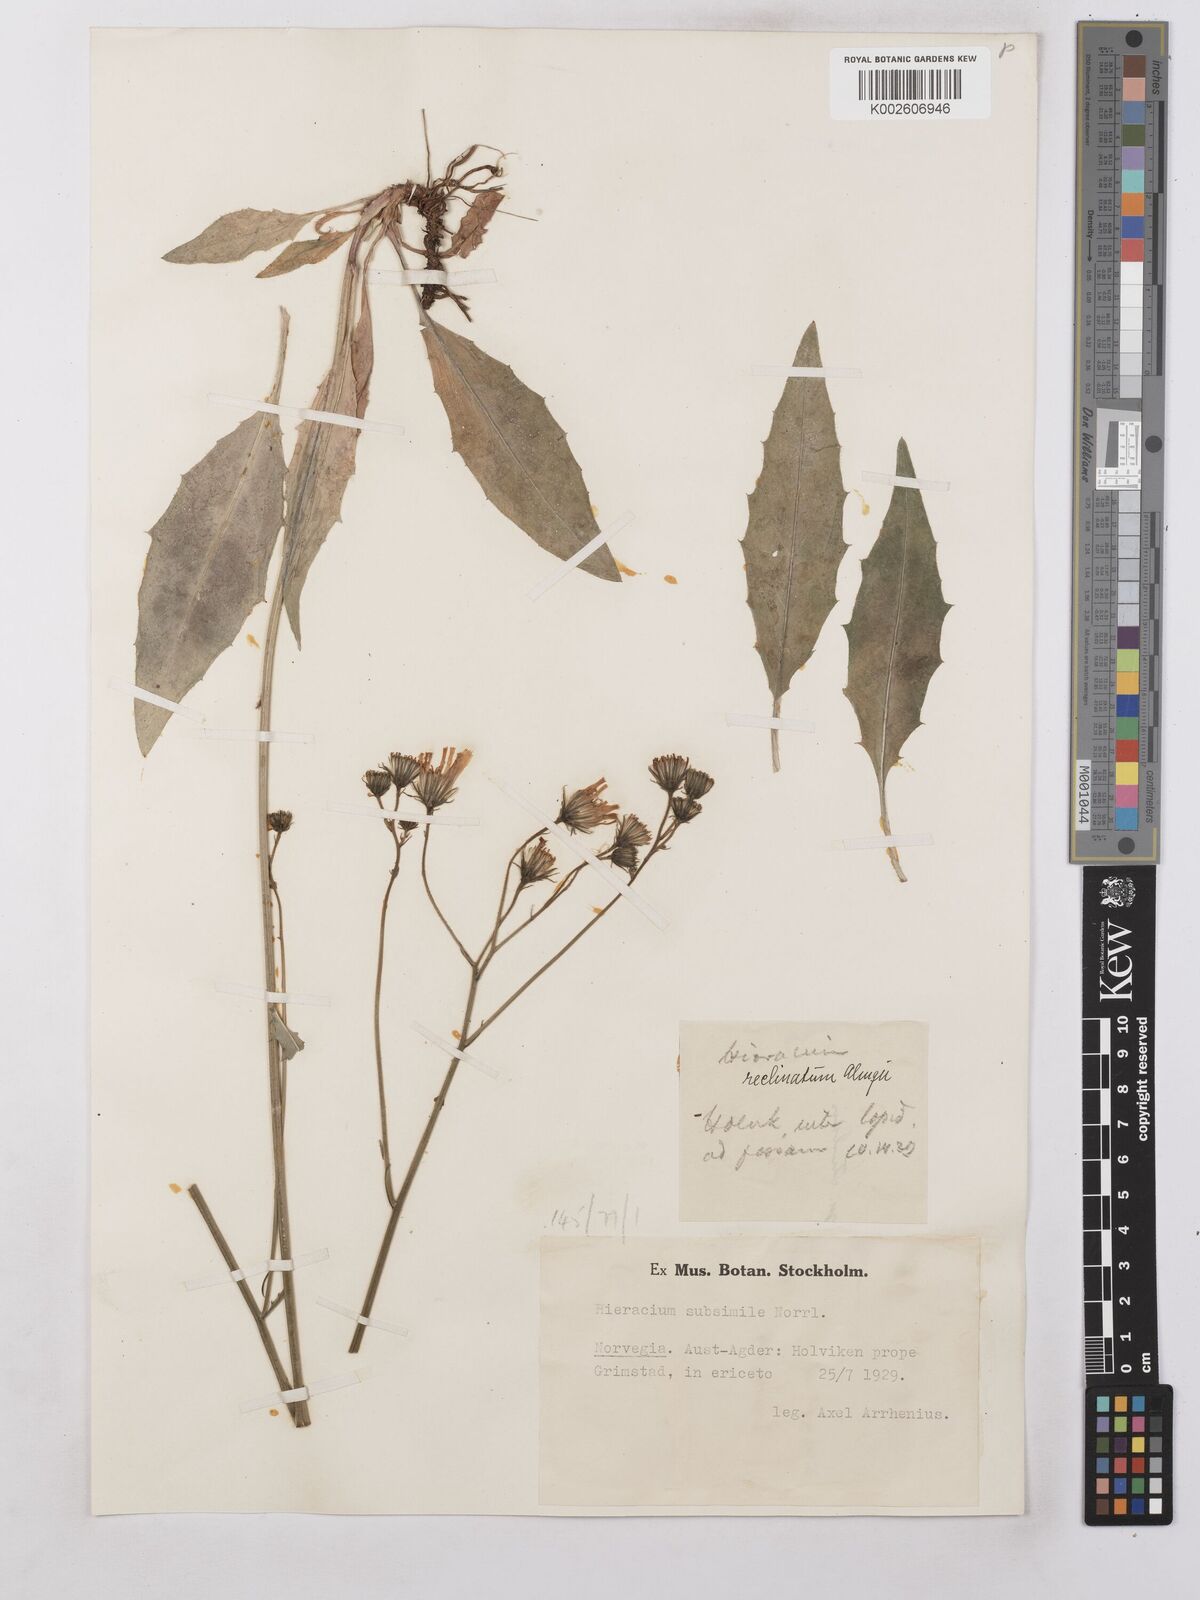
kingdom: Plantae
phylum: Tracheophyta
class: Magnoliopsida
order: Asterales
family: Asteraceae
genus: Hieracium
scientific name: Hieracium levicaule
